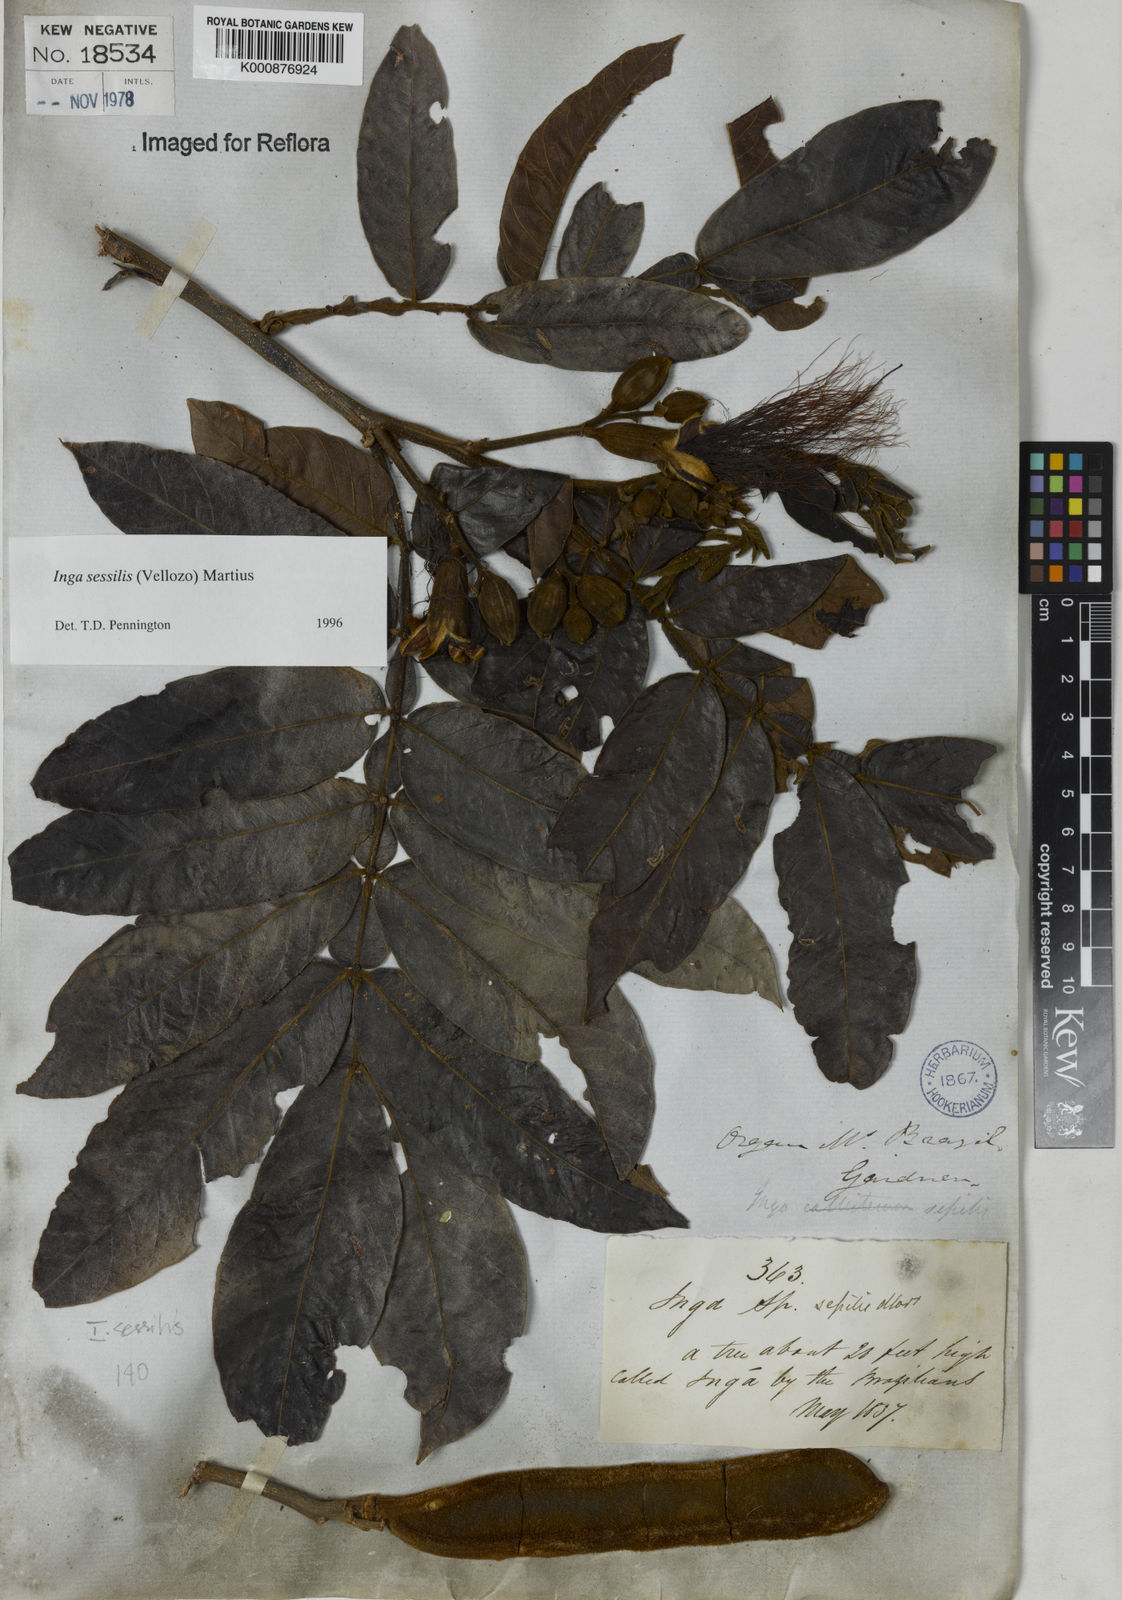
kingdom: Plantae
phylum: Tracheophyta
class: Magnoliopsida
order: Fabales
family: Fabaceae
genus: Inga
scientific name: Inga sessilis
